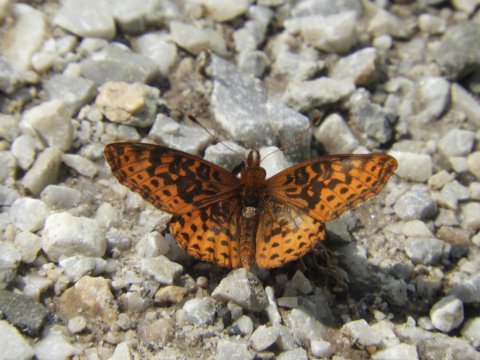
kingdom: Animalia
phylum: Arthropoda
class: Insecta
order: Lepidoptera
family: Nymphalidae
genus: Clossiana
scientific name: Clossiana toddi
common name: Meadow Fritillary
